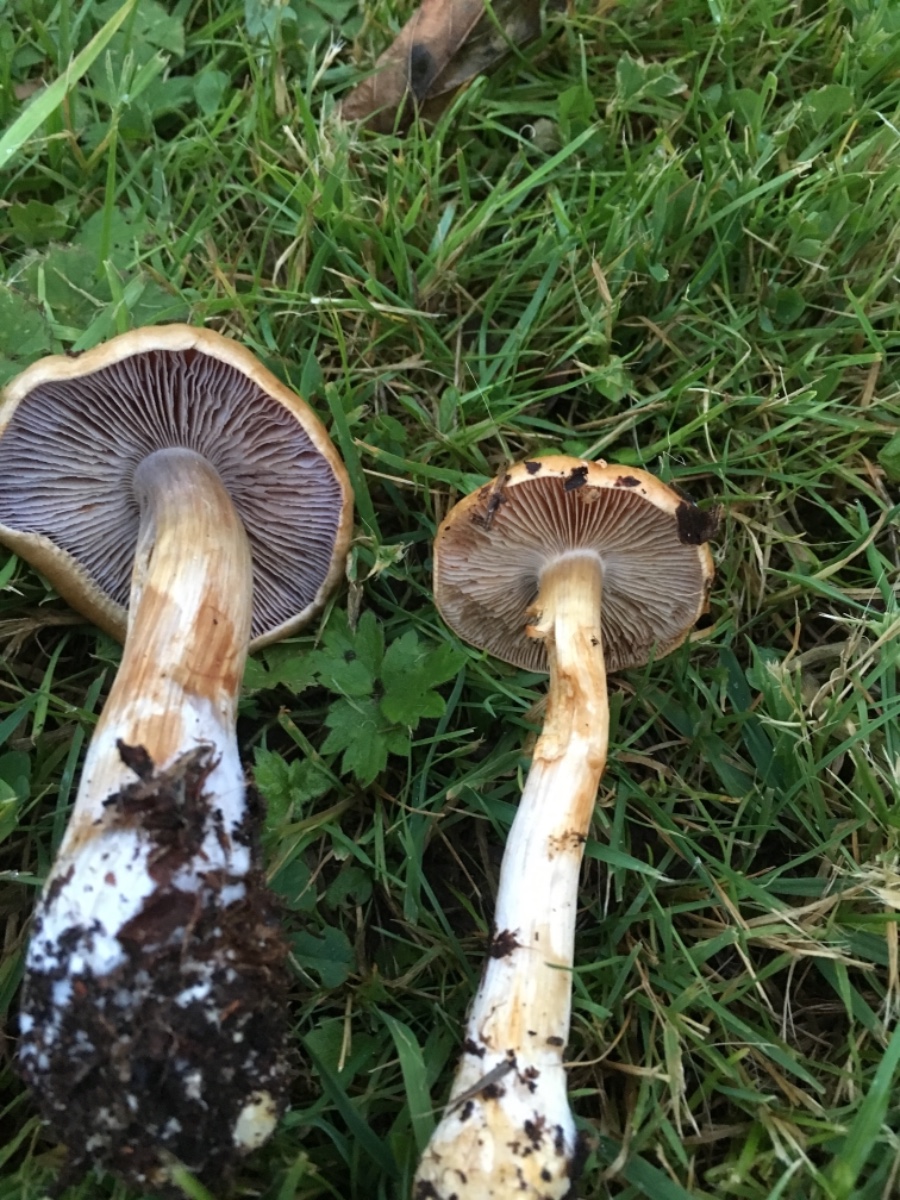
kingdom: Fungi
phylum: Basidiomycota
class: Agaricomycetes
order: Agaricales
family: Cortinariaceae
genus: Thaxterogaster
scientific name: Thaxterogaster anomalochrascens
